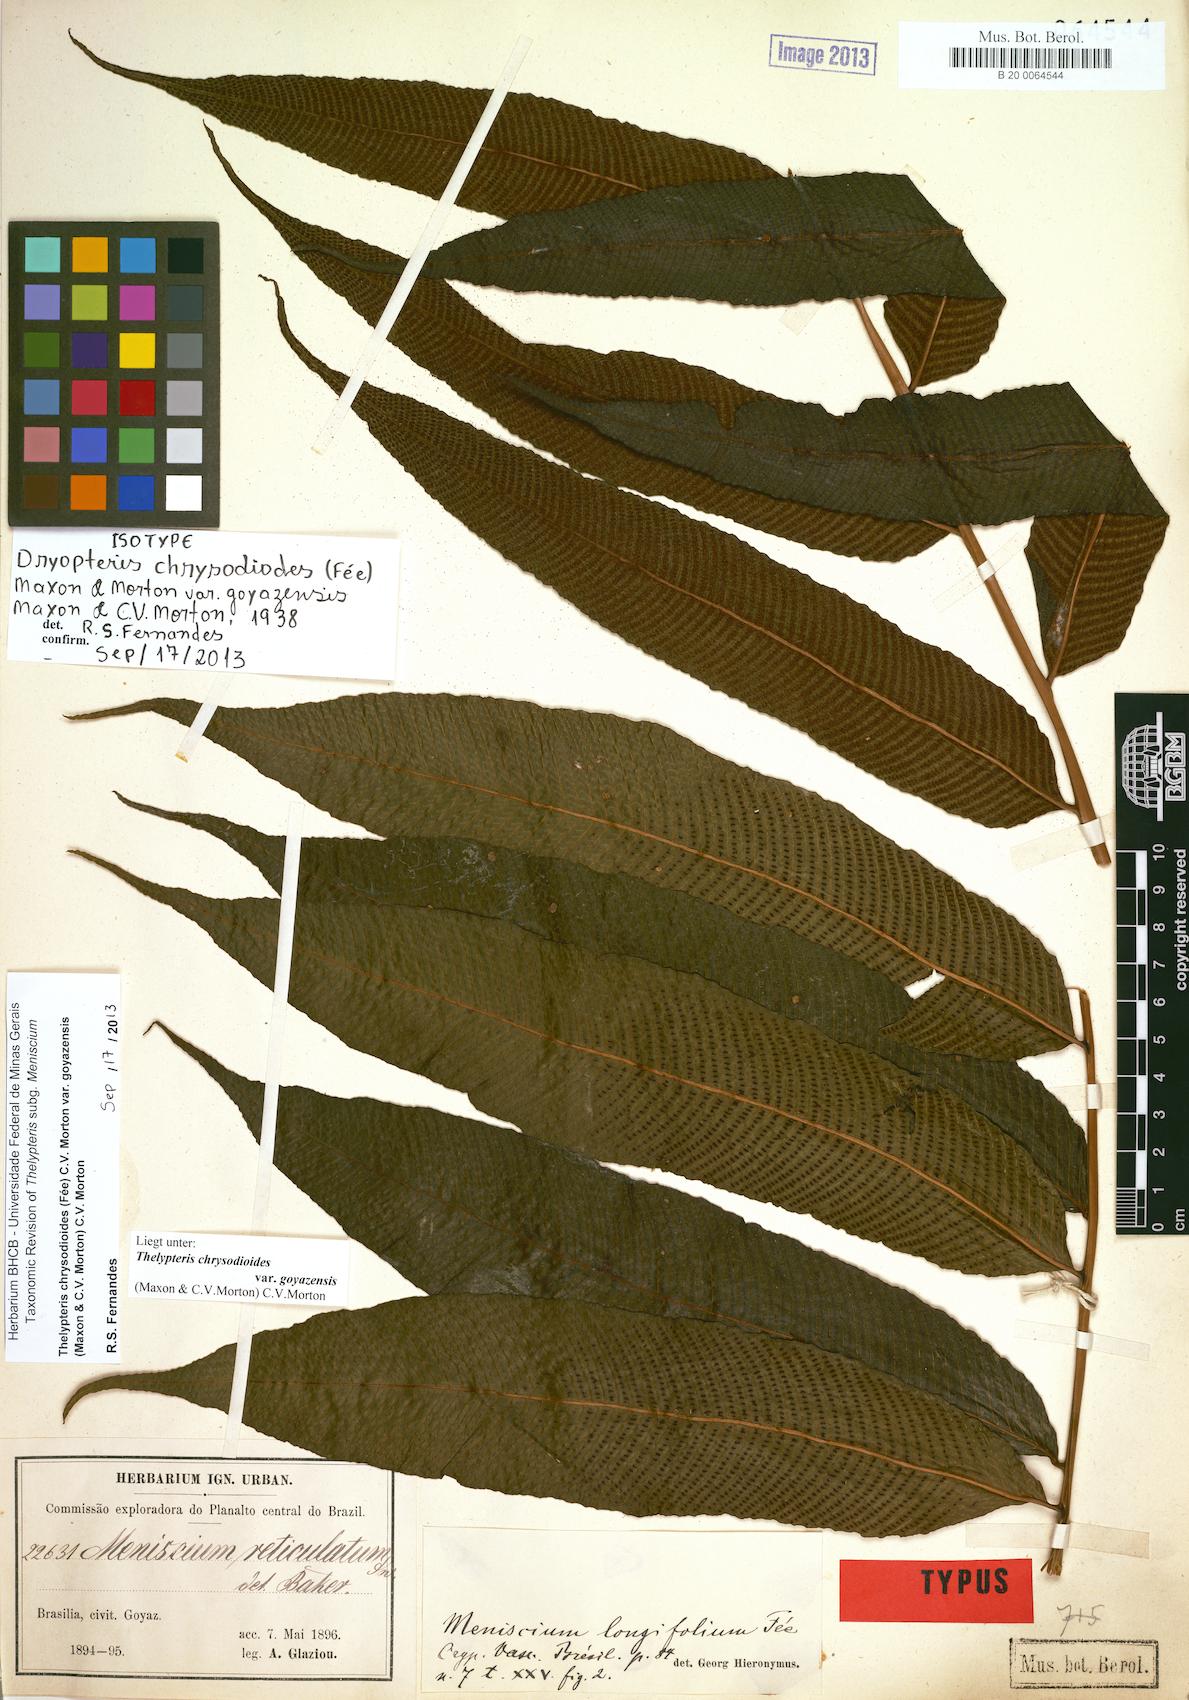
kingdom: Plantae
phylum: Tracheophyta
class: Polypodiopsida
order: Polypodiales
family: Thelypteridaceae
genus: Meniscium
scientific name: Meniscium chrysodioides
